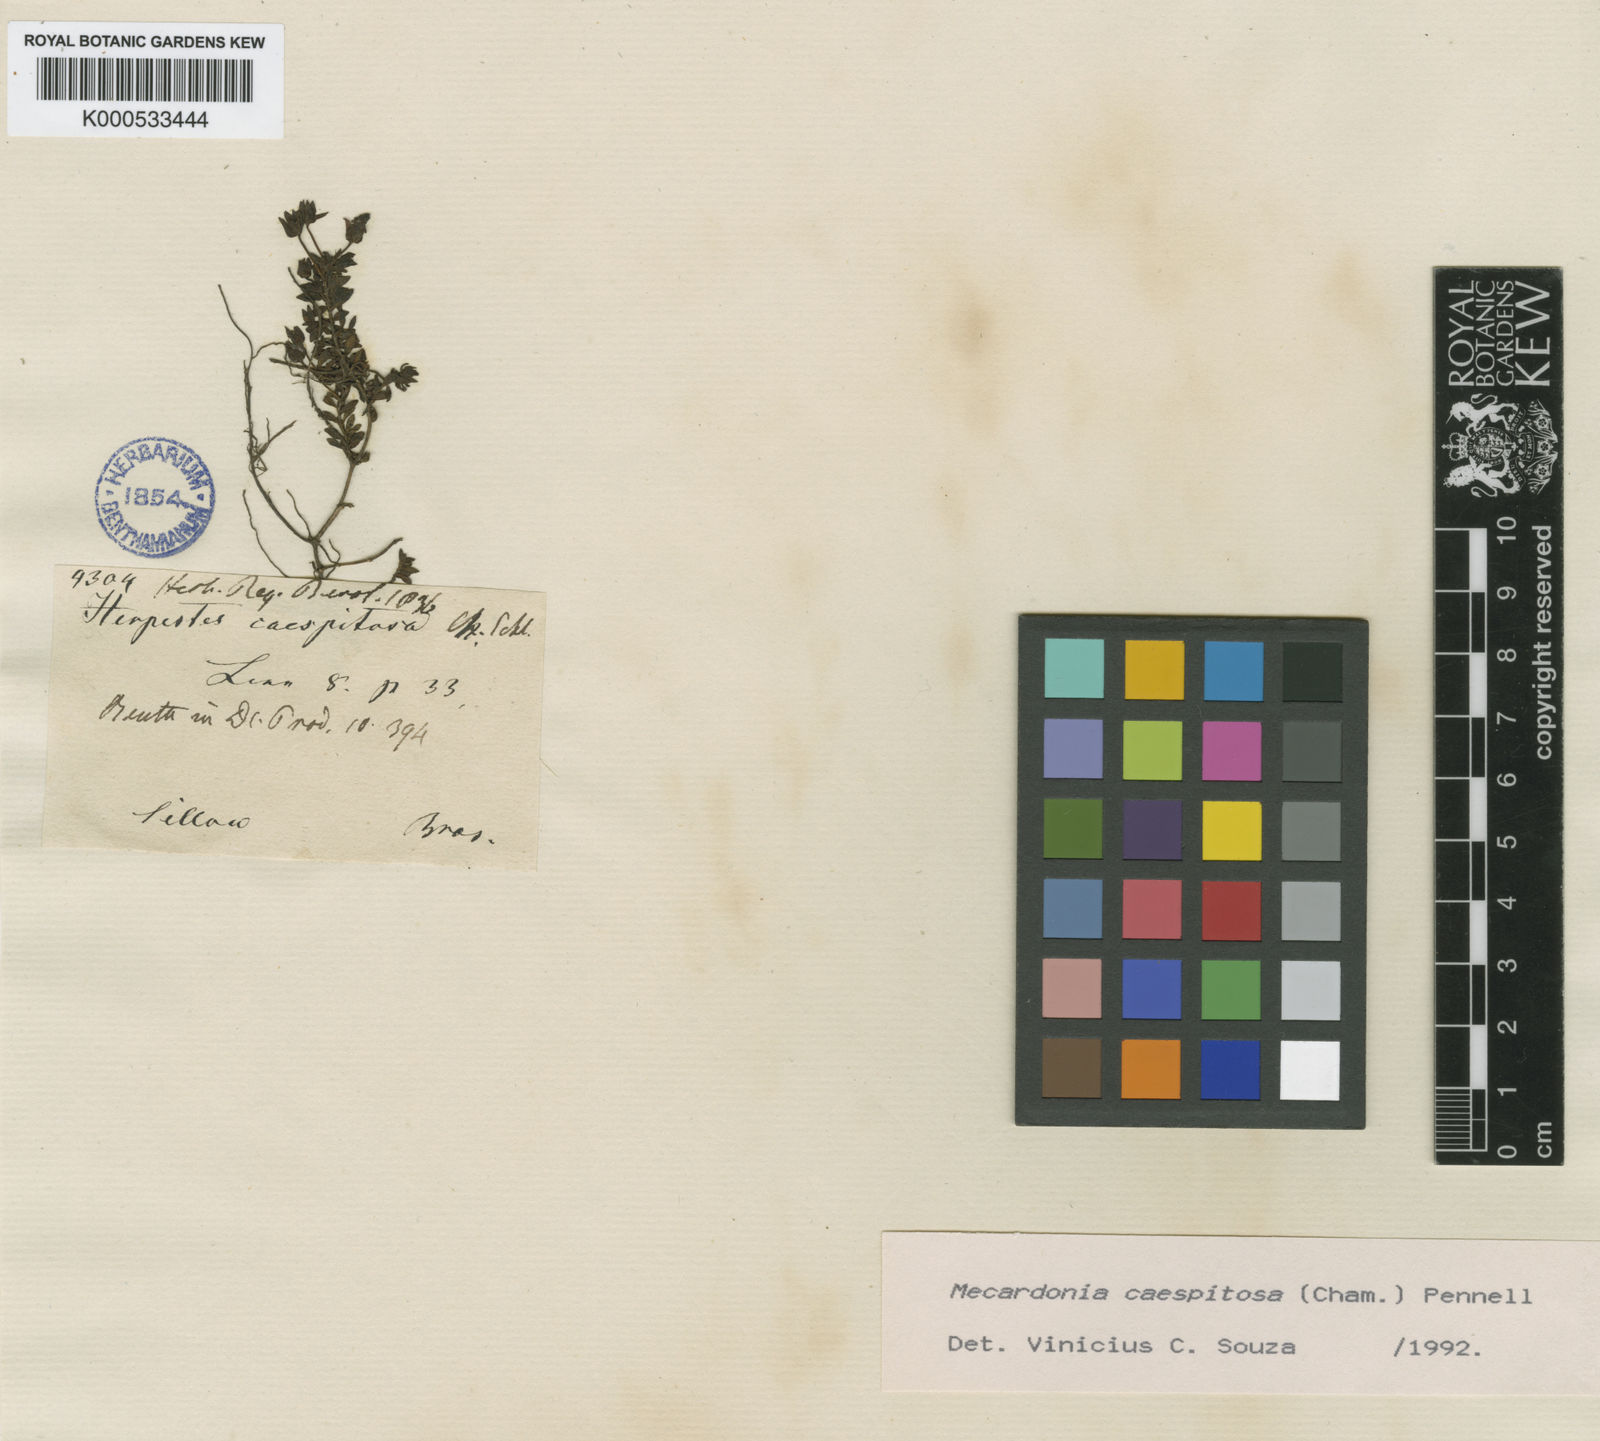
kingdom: Plantae
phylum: Tracheophyta
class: Magnoliopsida
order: Lamiales
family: Plantaginaceae
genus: Mecardonia
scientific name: Mecardonia procumbens
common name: Baby jump-up
